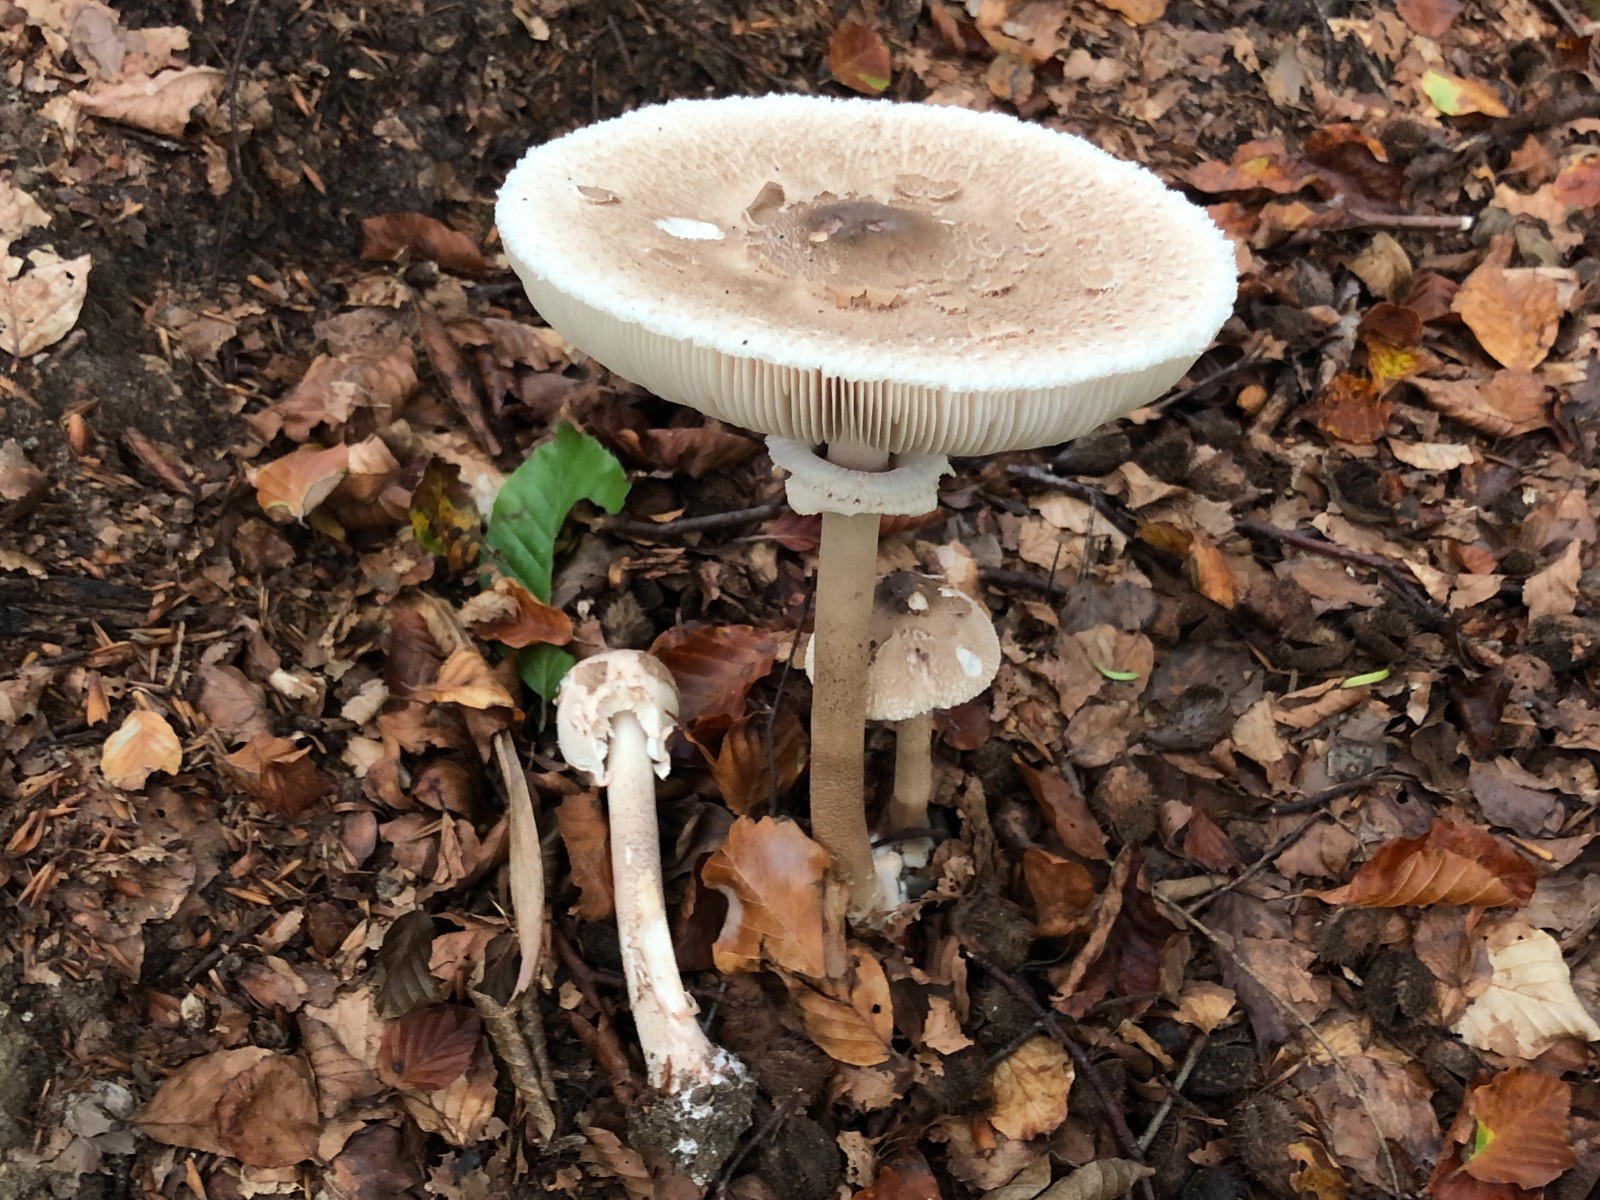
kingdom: Fungi
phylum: Basidiomycota
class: Agaricomycetes
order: Agaricales
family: Agaricaceae
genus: Macrolepiota
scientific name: Macrolepiota mastoidea
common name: puklet kæmpeparasolhat
